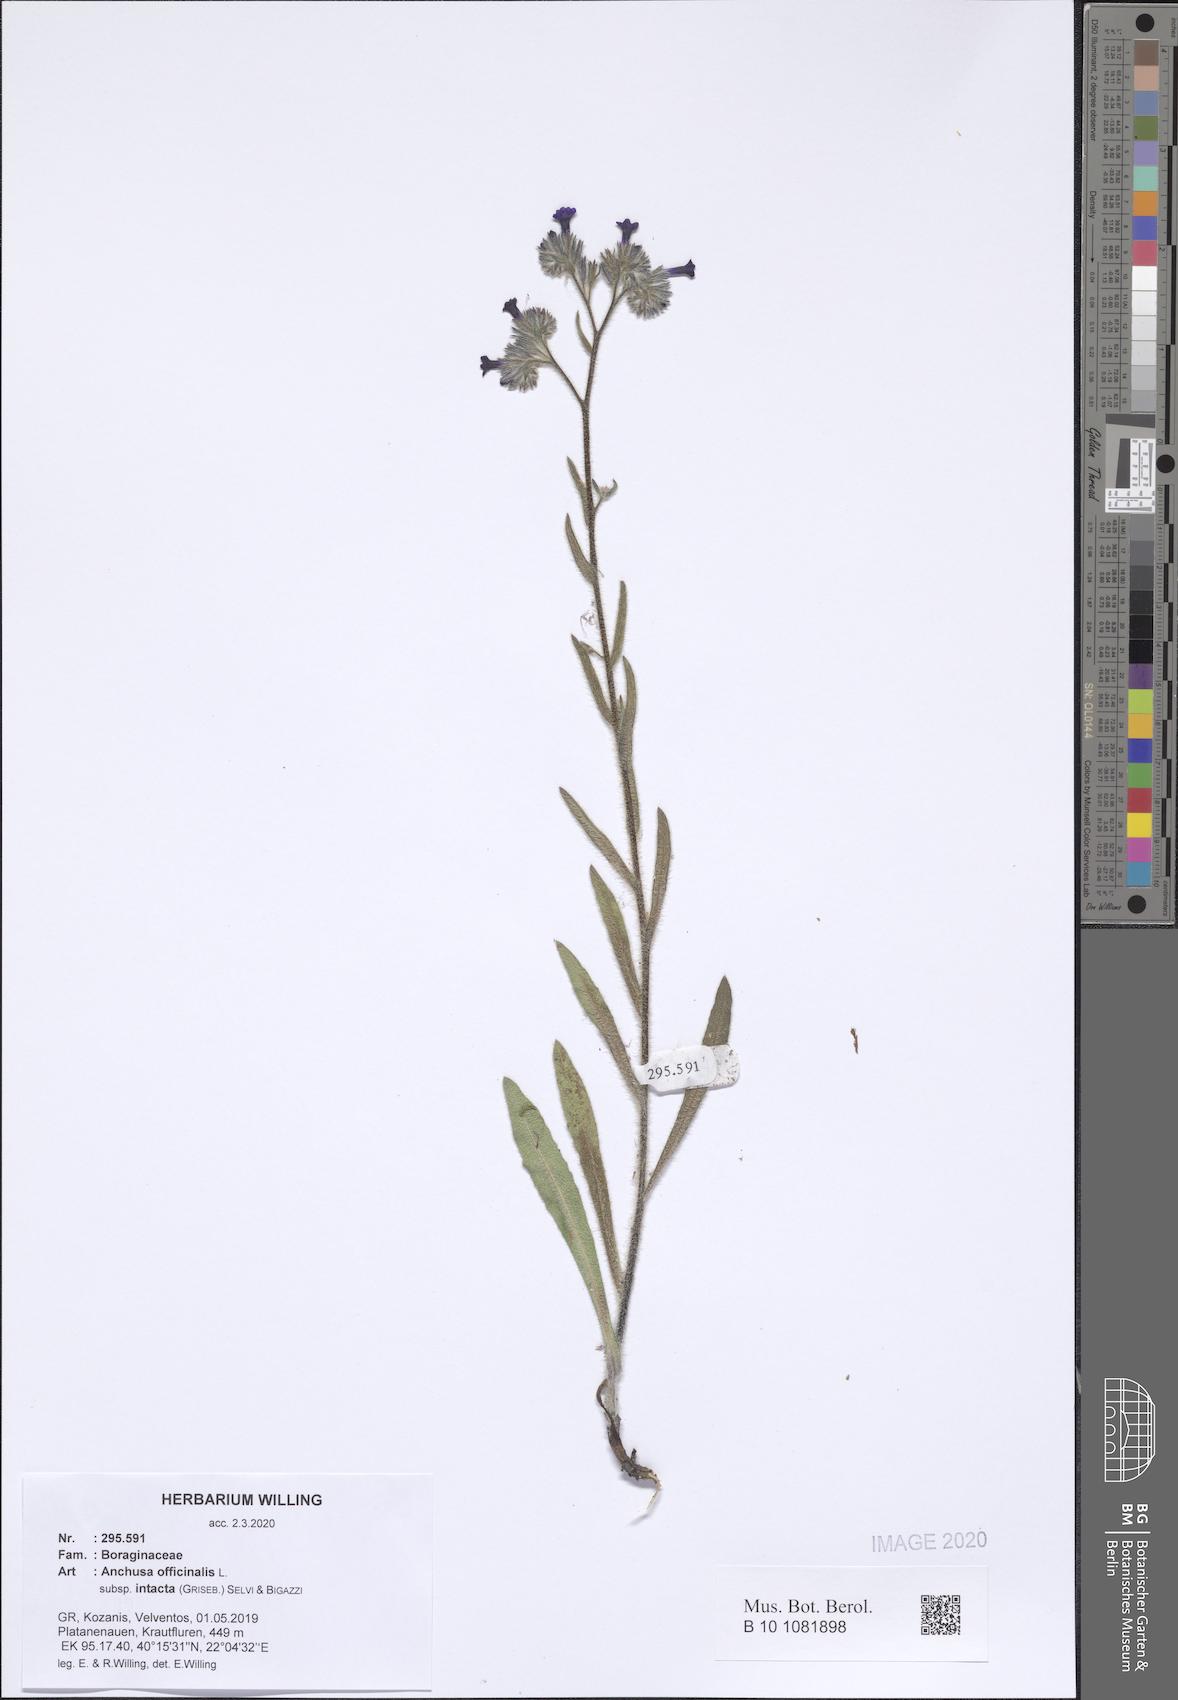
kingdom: Plantae
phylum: Tracheophyta
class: Magnoliopsida
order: Boraginales
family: Boraginaceae
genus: Anchusa
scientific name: Anchusa officinalis
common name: Alkanet
